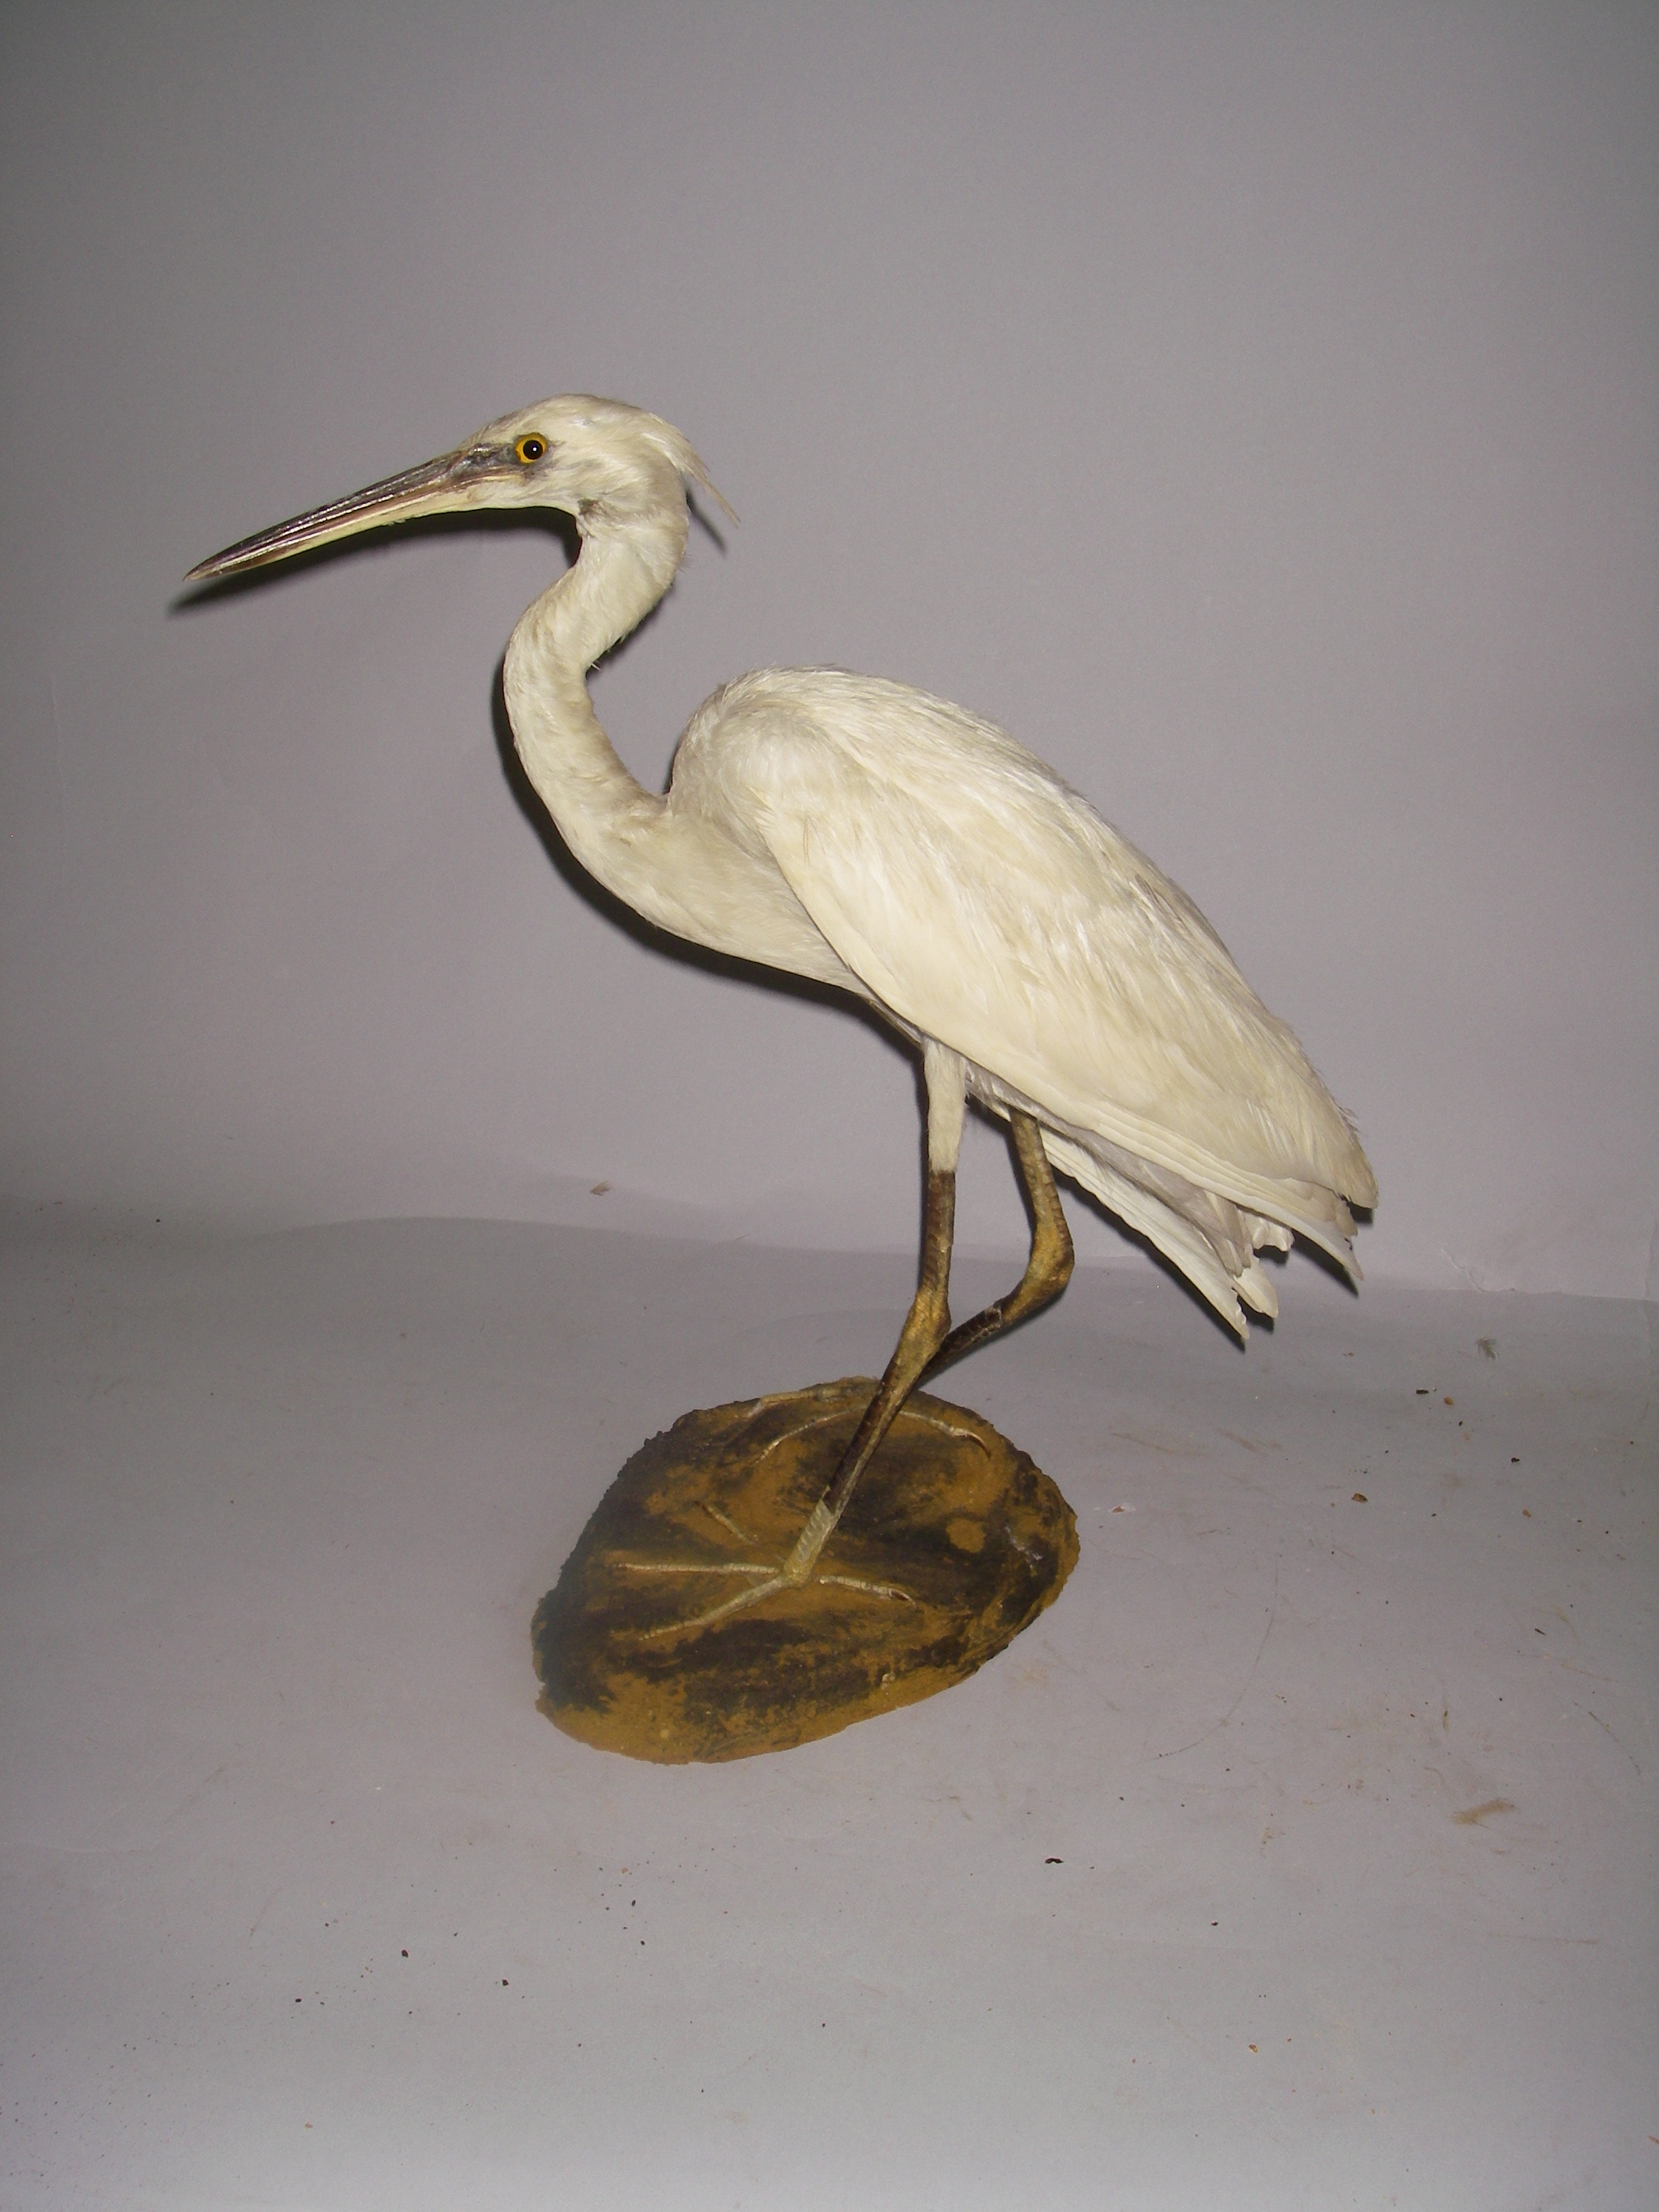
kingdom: Animalia
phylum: Chordata
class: Aves
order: Pelecaniformes
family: Ardeidae
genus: Egretta
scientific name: Egretta garzetta
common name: Little egret
